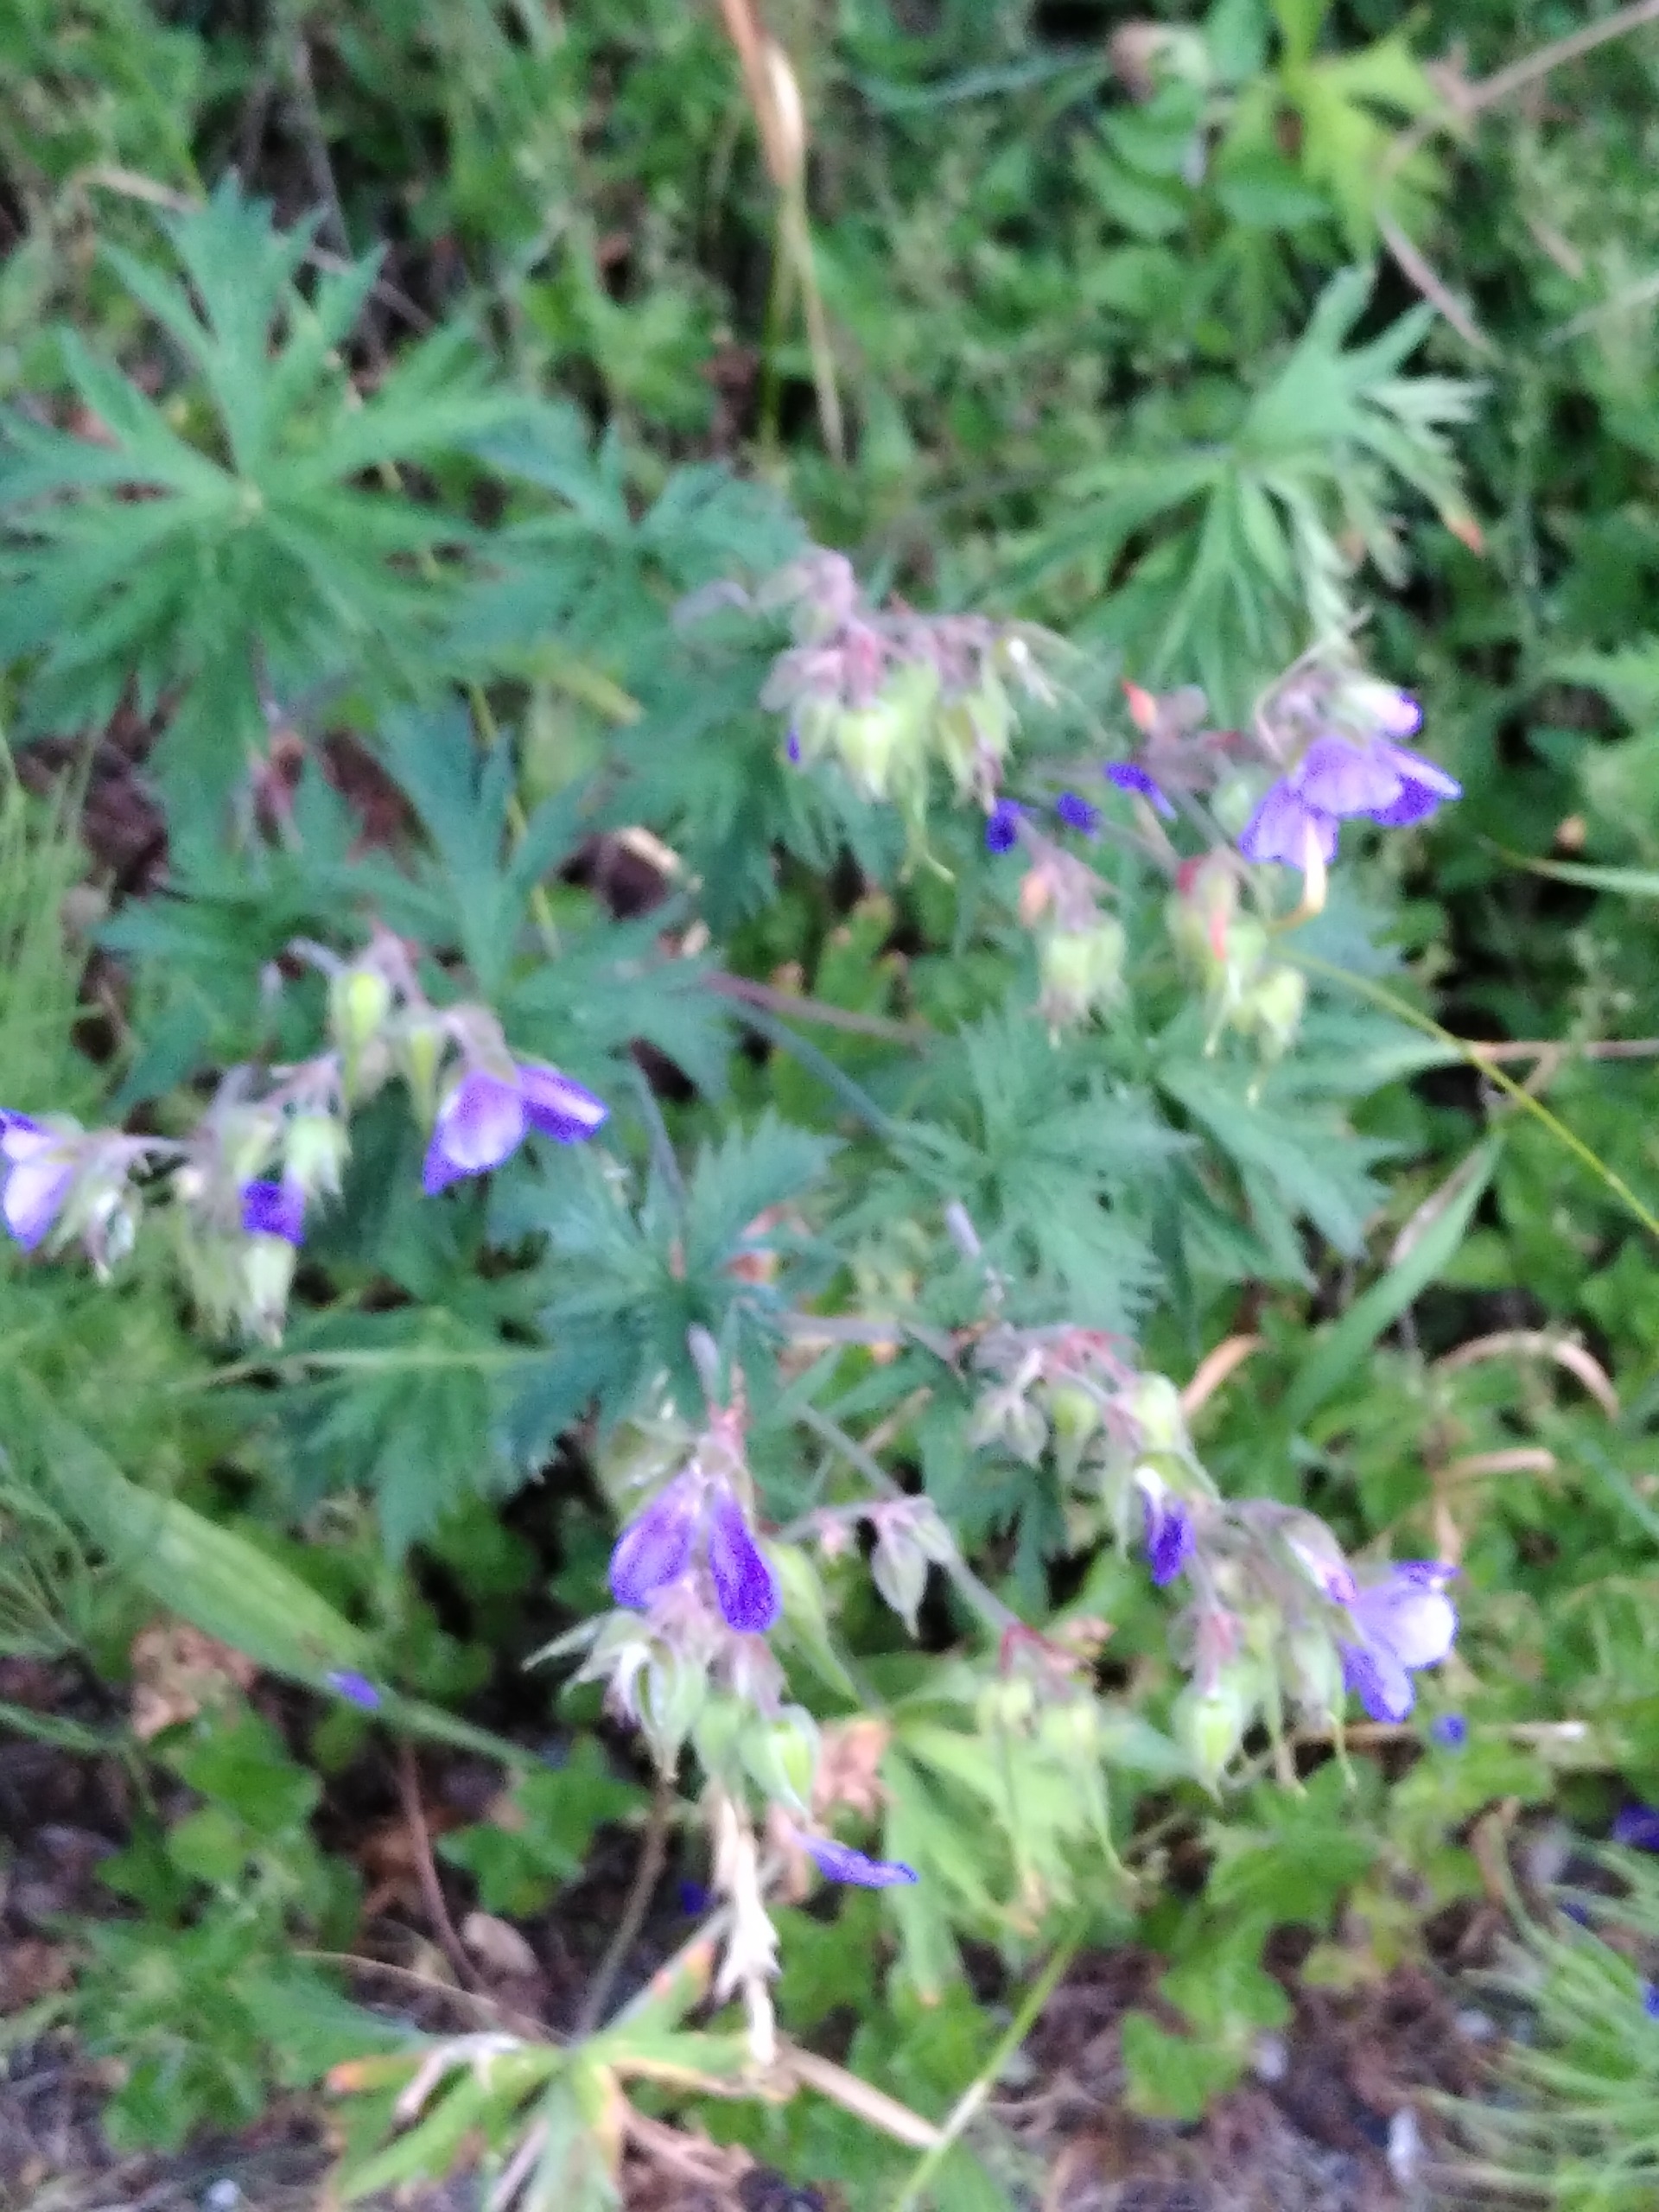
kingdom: Plantae
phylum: Tracheophyta
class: Magnoliopsida
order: Geraniales
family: Geraniaceae
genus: Geranium
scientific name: Geranium pratense
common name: Eng-storkenæb
